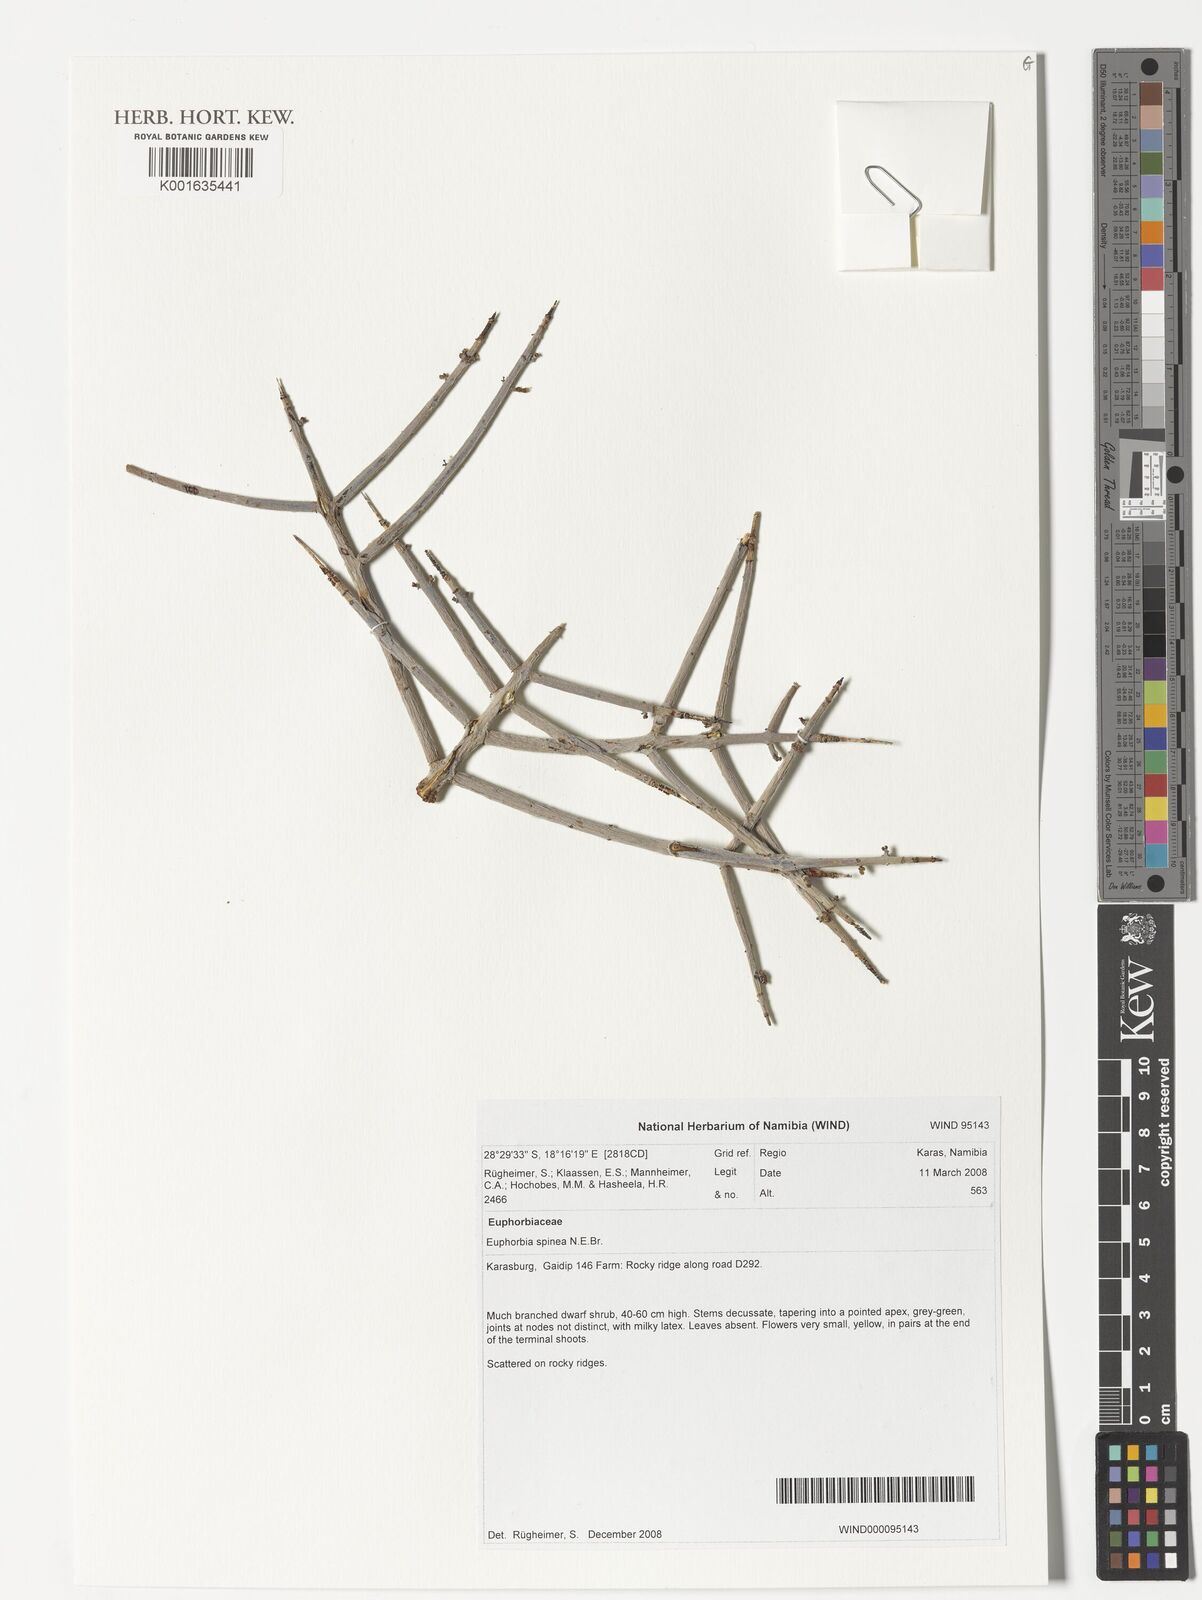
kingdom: Plantae
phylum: Tracheophyta
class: Magnoliopsida
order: Malpighiales
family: Euphorbiaceae
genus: Euphorbia
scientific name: Euphorbia spinea
